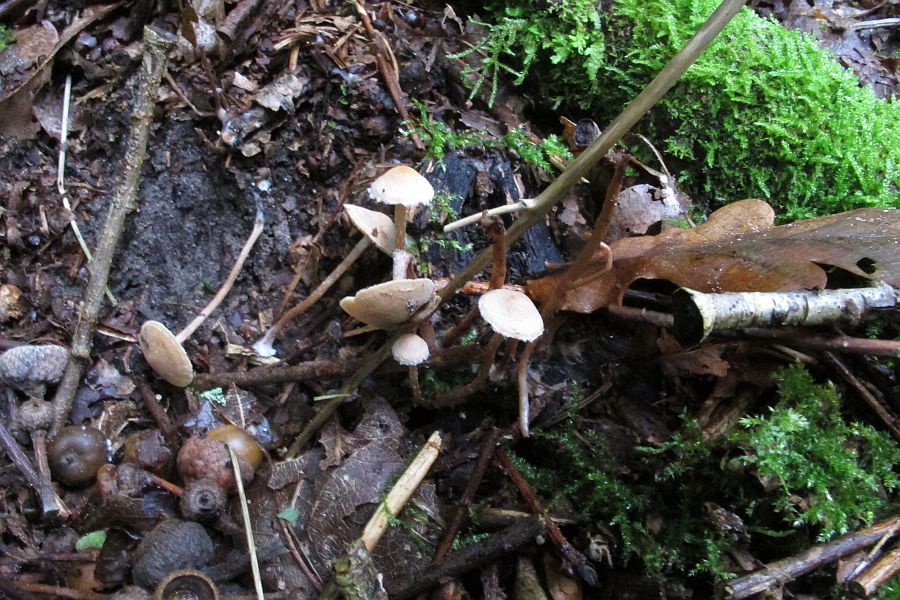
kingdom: Fungi
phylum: Basidiomycota
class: Agaricomycetes
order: Agaricales
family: Tubariaceae
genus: Tubaria
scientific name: Tubaria conspersa
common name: bleg fnughat
